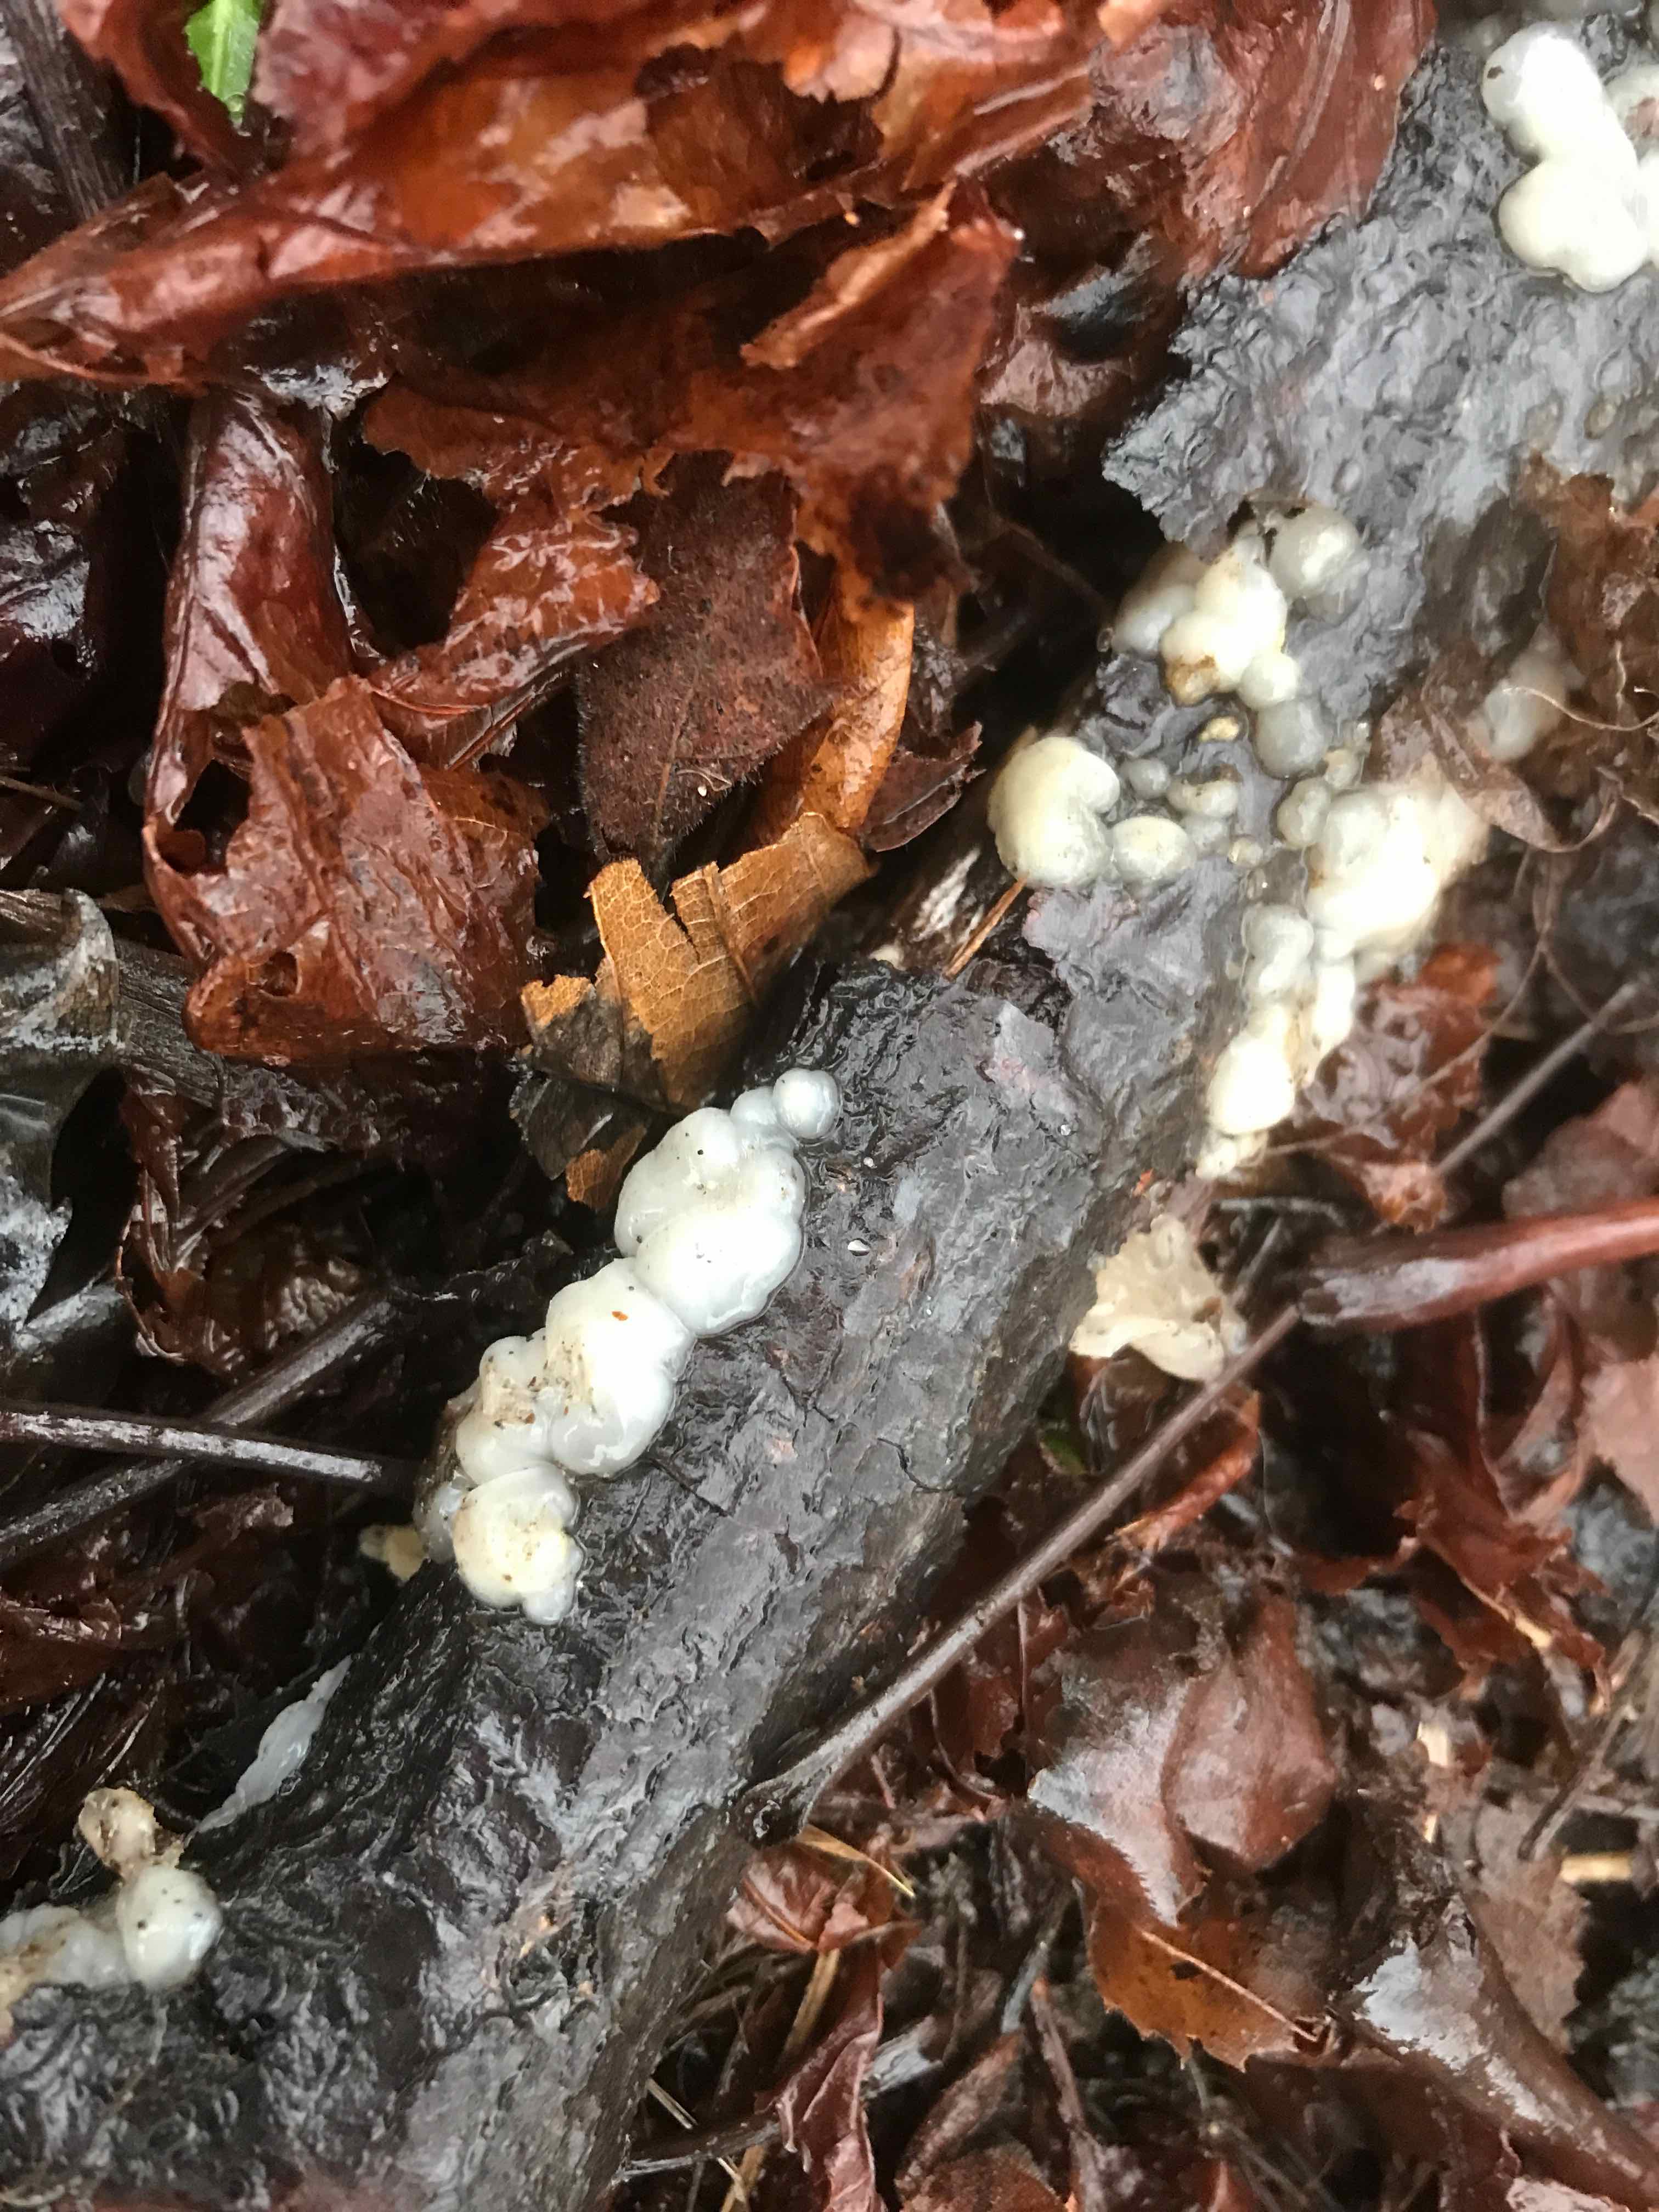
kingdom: Fungi
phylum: Basidiomycota
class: Agaricomycetes
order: Auriculariales
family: Hyaloriaceae
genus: Myxarium
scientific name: Myxarium nucleatum
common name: klar bævretop
